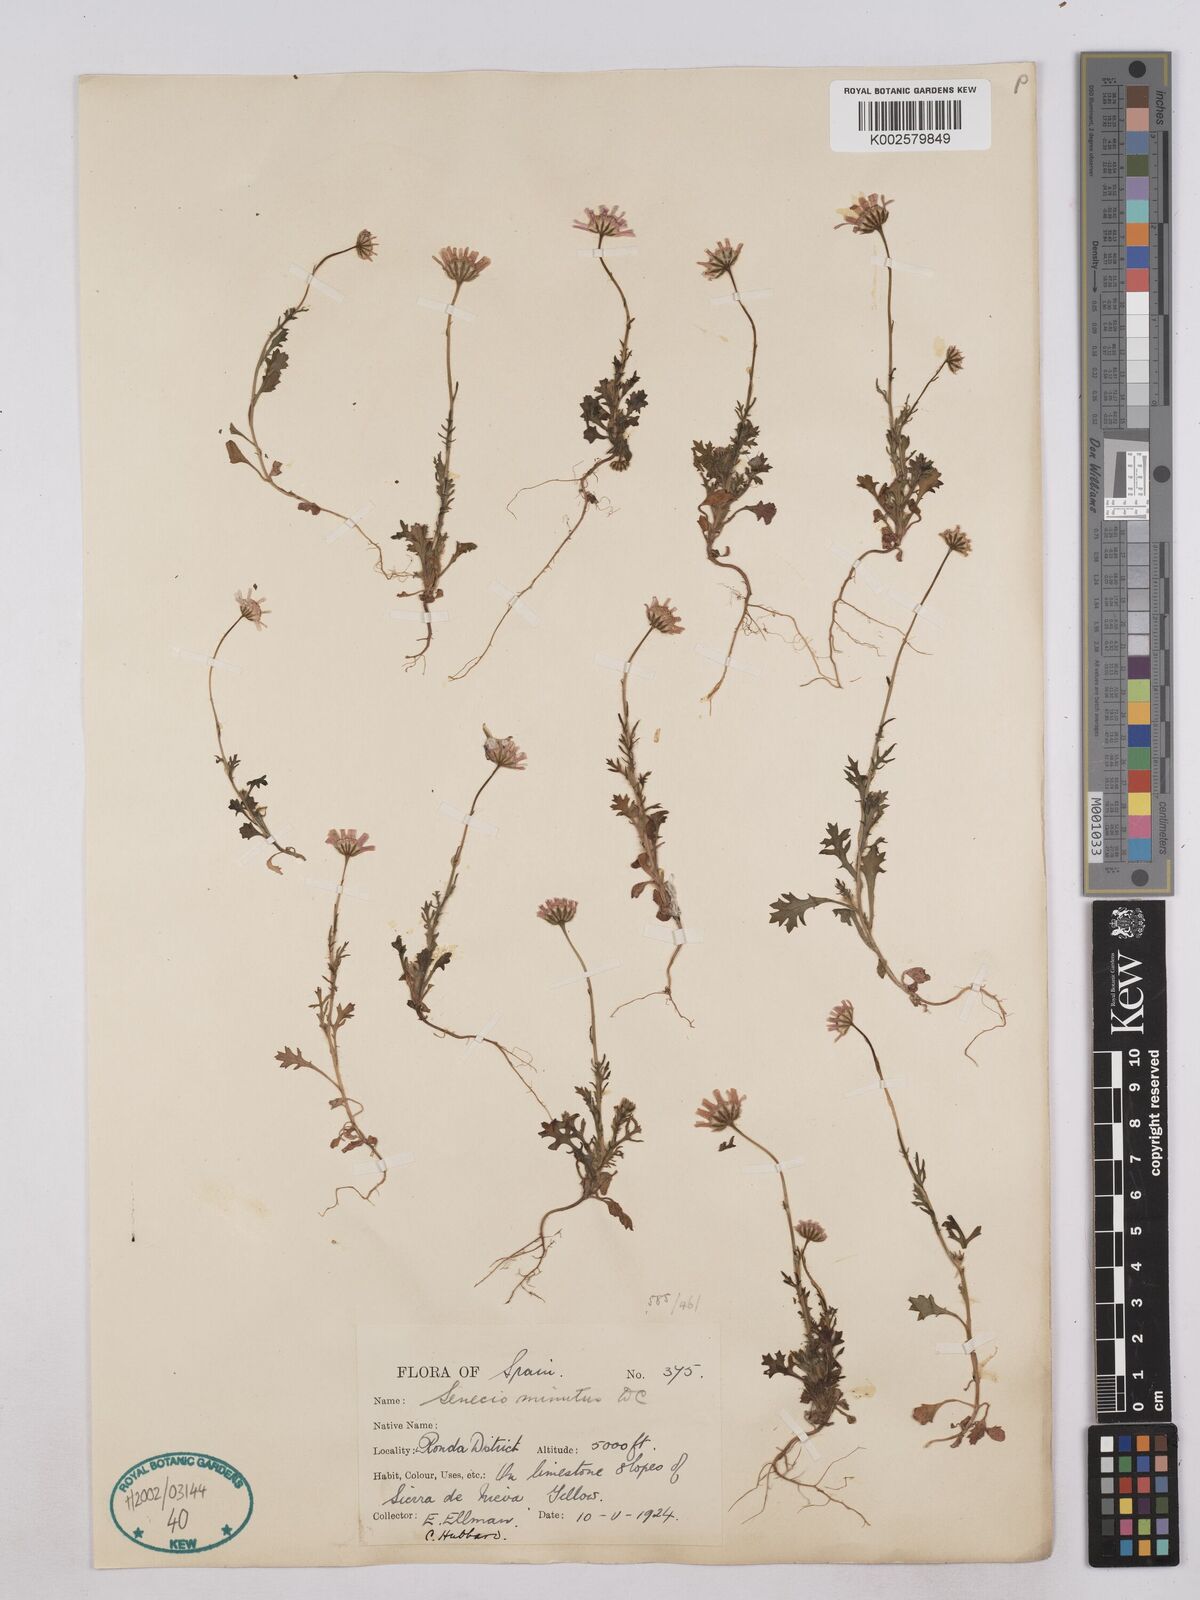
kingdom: Plantae
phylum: Tracheophyta
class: Magnoliopsida
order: Asterales
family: Asteraceae
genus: Jacobaea
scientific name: Jacobaea minuta
